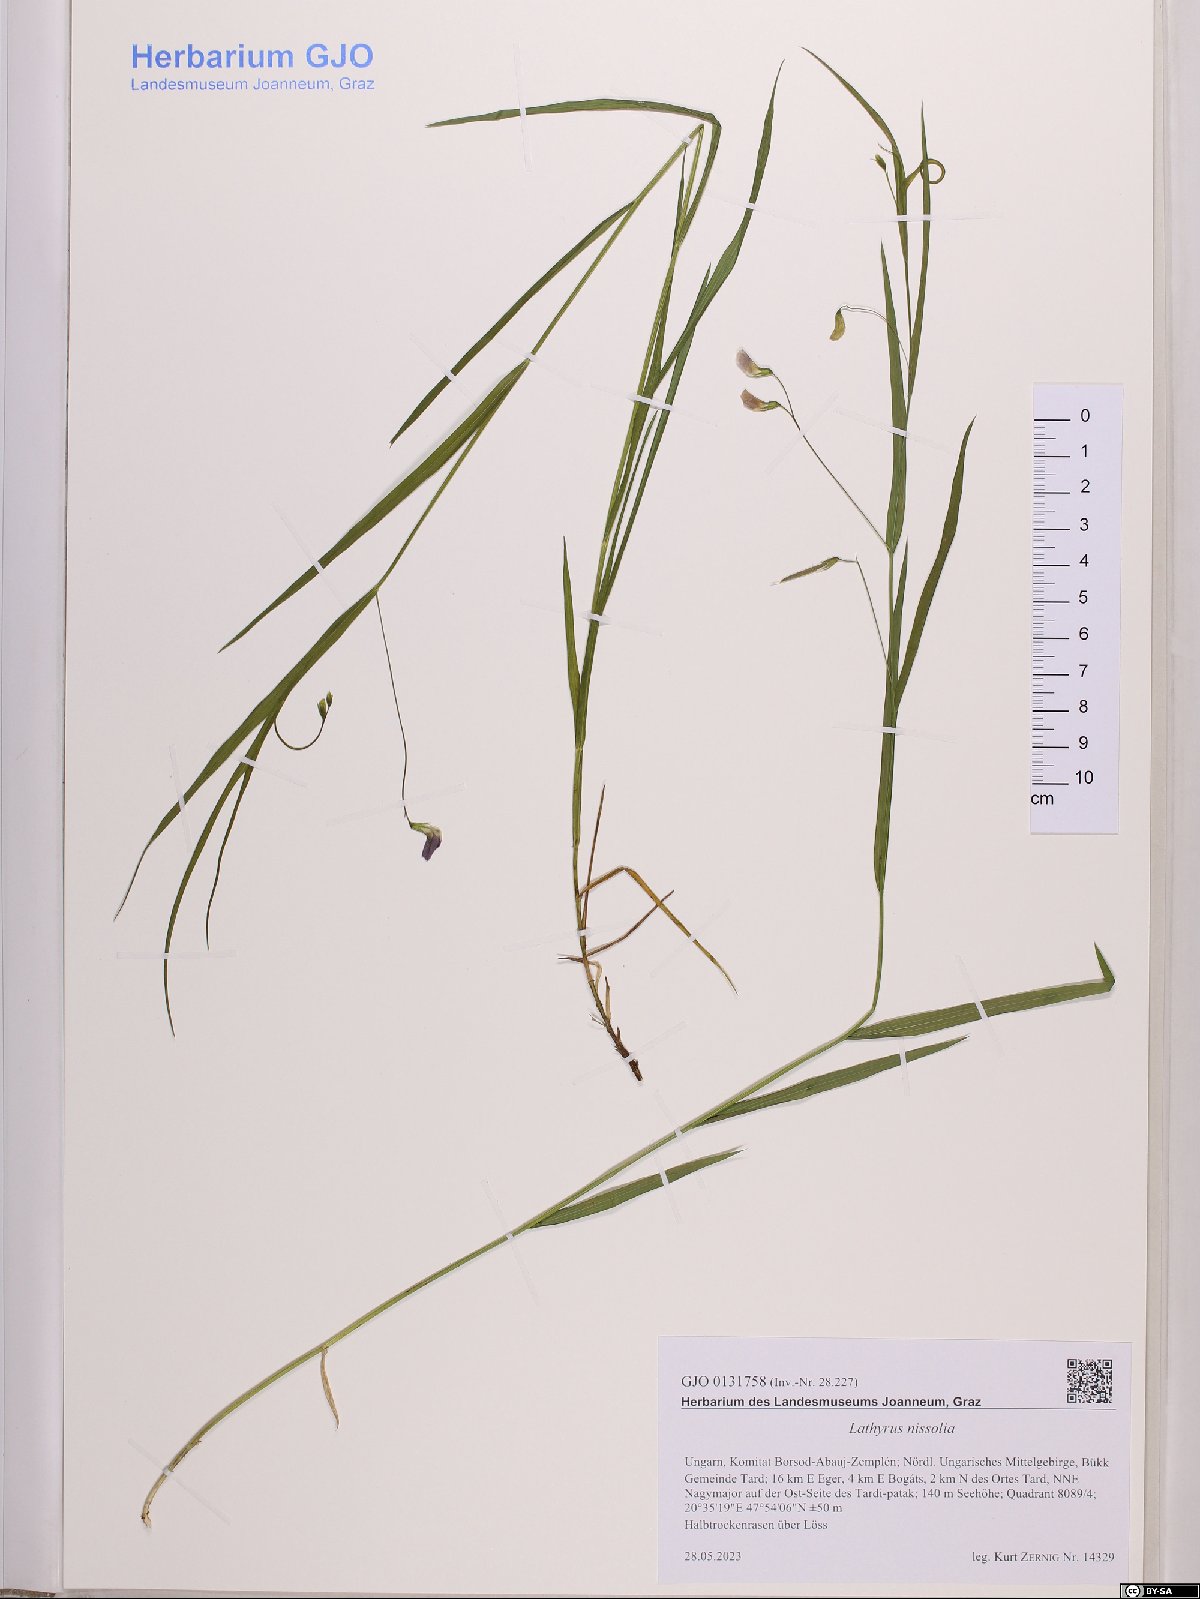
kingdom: Plantae
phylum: Tracheophyta
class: Magnoliopsida
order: Fabales
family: Fabaceae
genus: Lathyrus
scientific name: Lathyrus nissolia
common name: Grass vetchling
